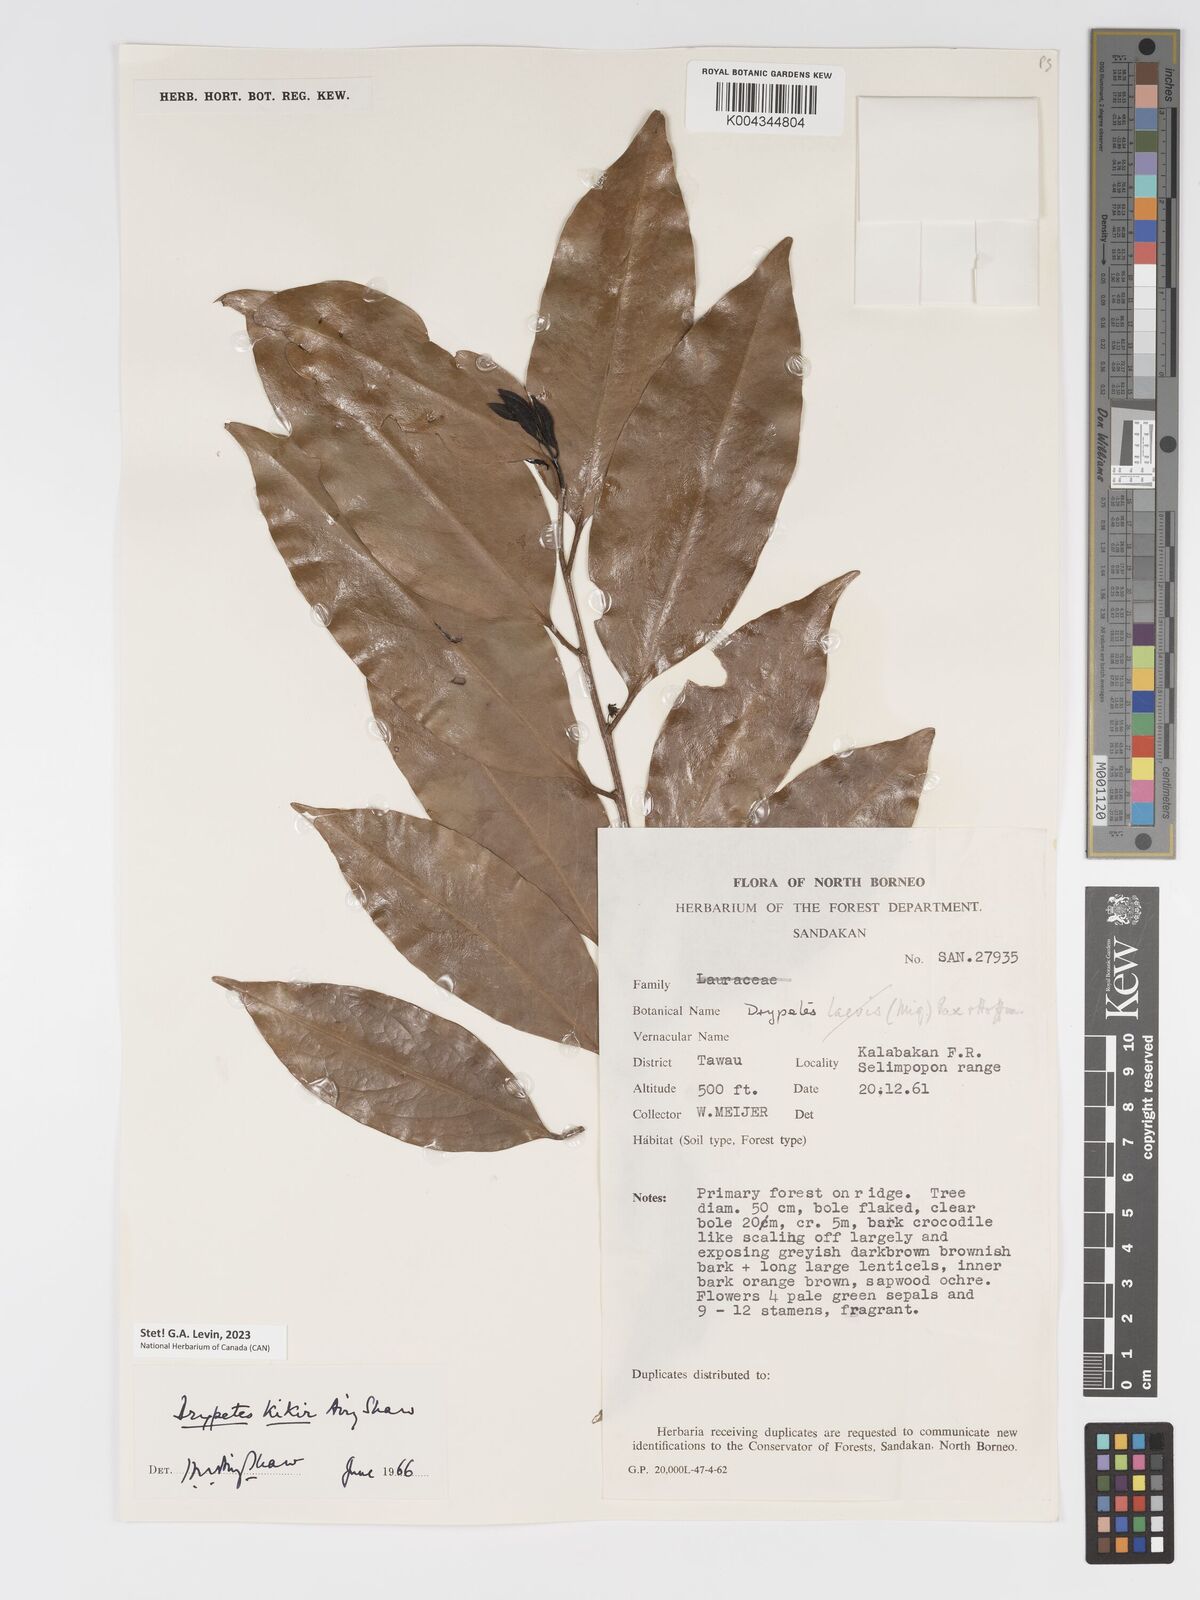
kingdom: Plantae
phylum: Tracheophyta
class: Magnoliopsida
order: Malpighiales
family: Putranjivaceae
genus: Drypetes
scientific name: Drypetes kikir
